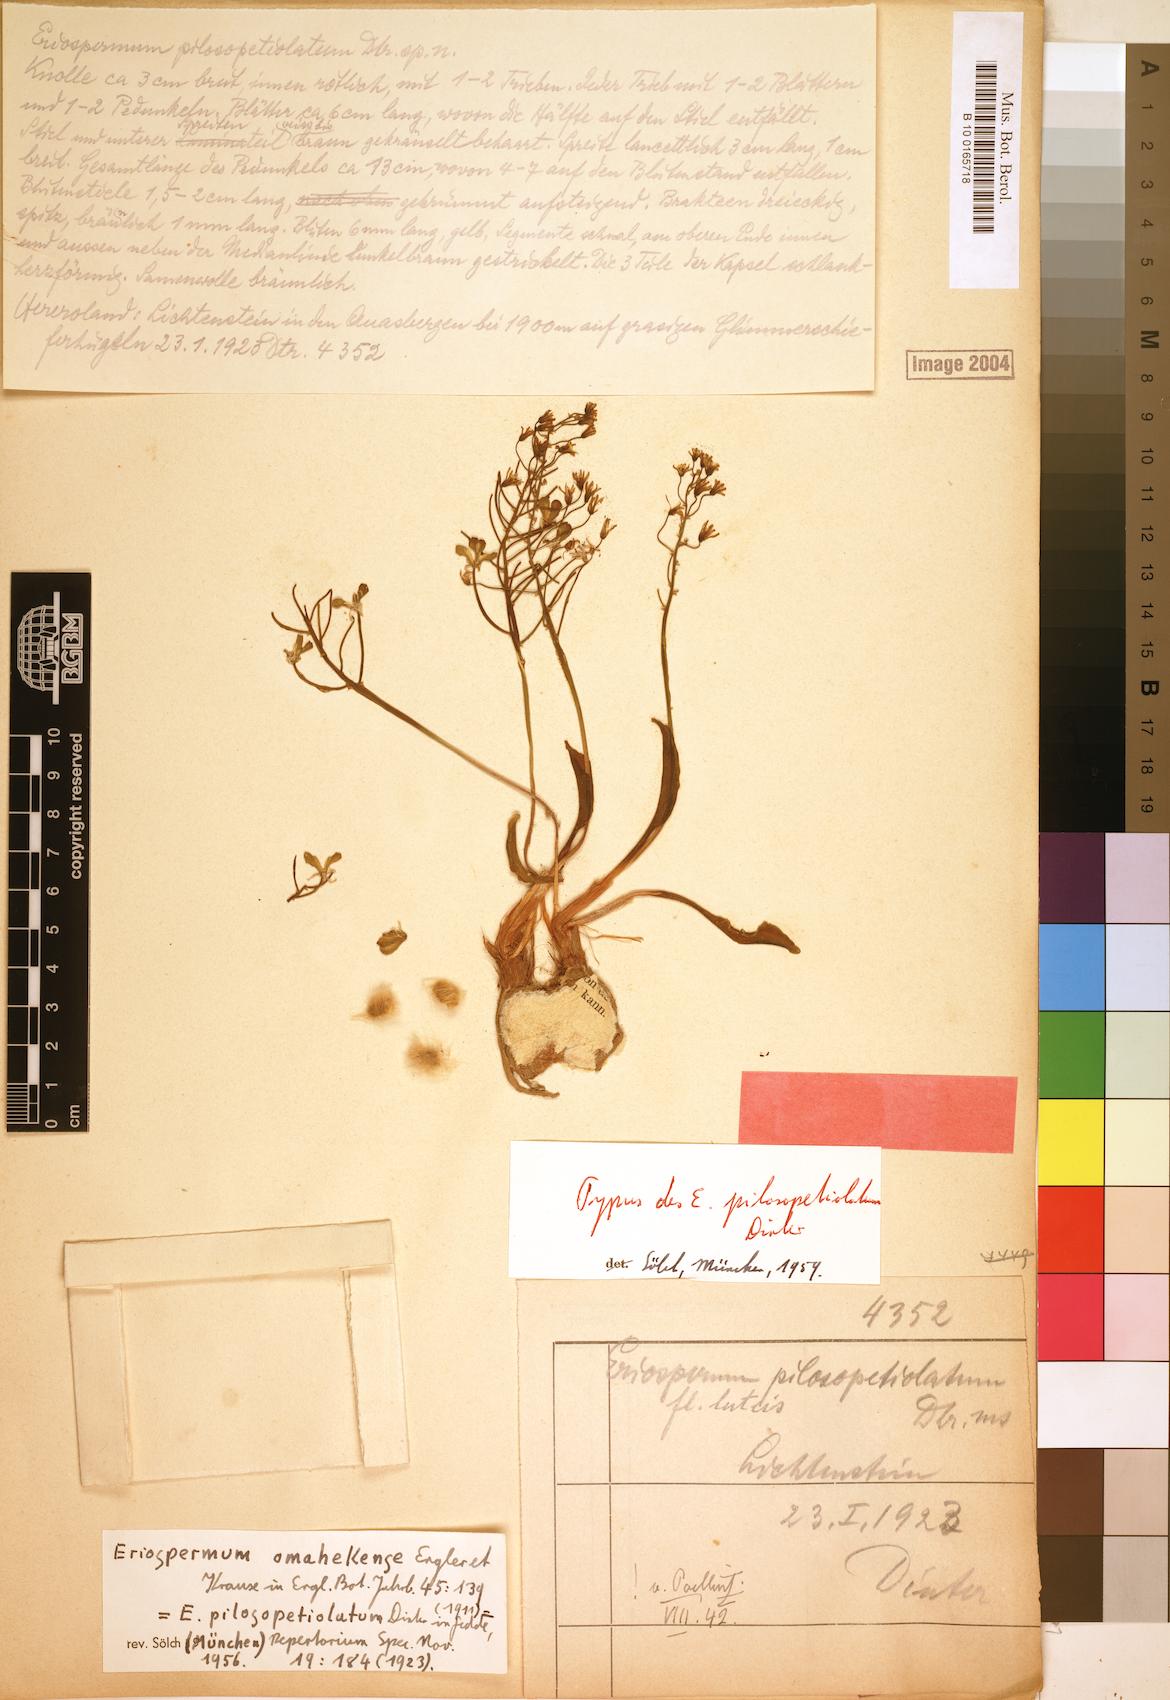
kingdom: Plantae
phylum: Tracheophyta
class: Liliopsida
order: Asparagales
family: Asparagaceae
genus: Eriospermum
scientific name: Eriospermum mackenii
